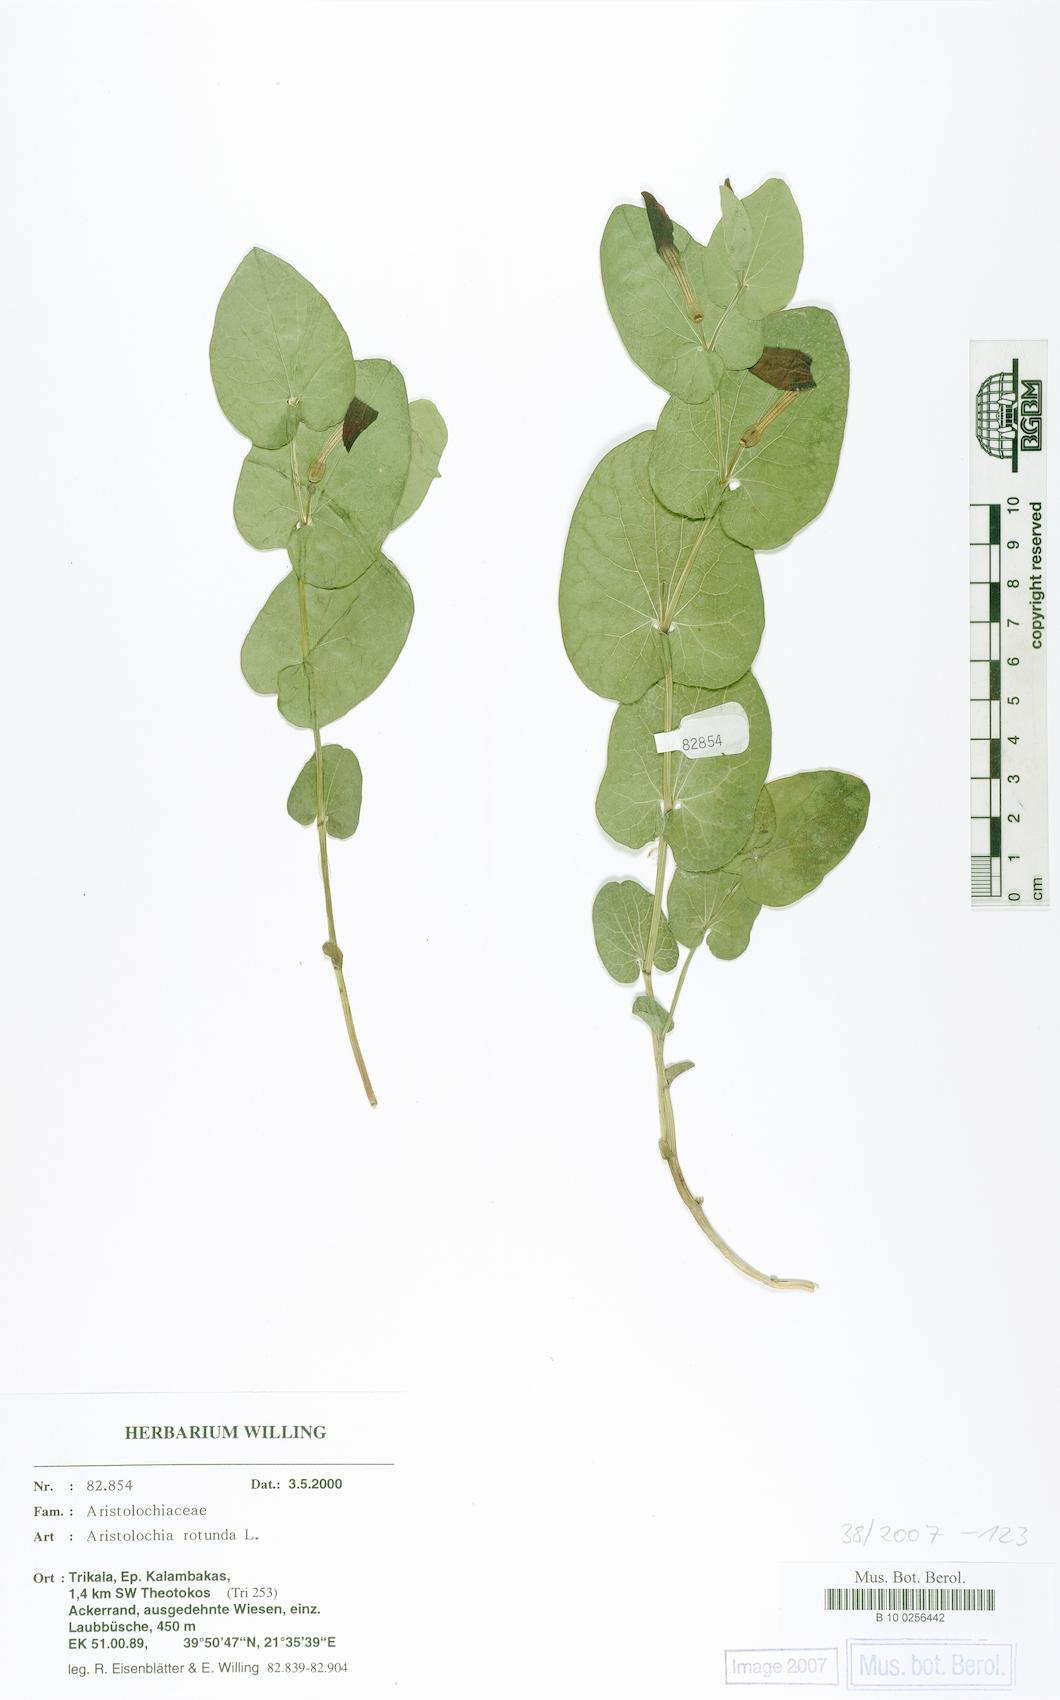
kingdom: Plantae
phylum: Tracheophyta
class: Magnoliopsida
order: Piperales
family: Aristolochiaceae
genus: Aristolochia
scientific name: Aristolochia rotunda
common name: Smearwort
